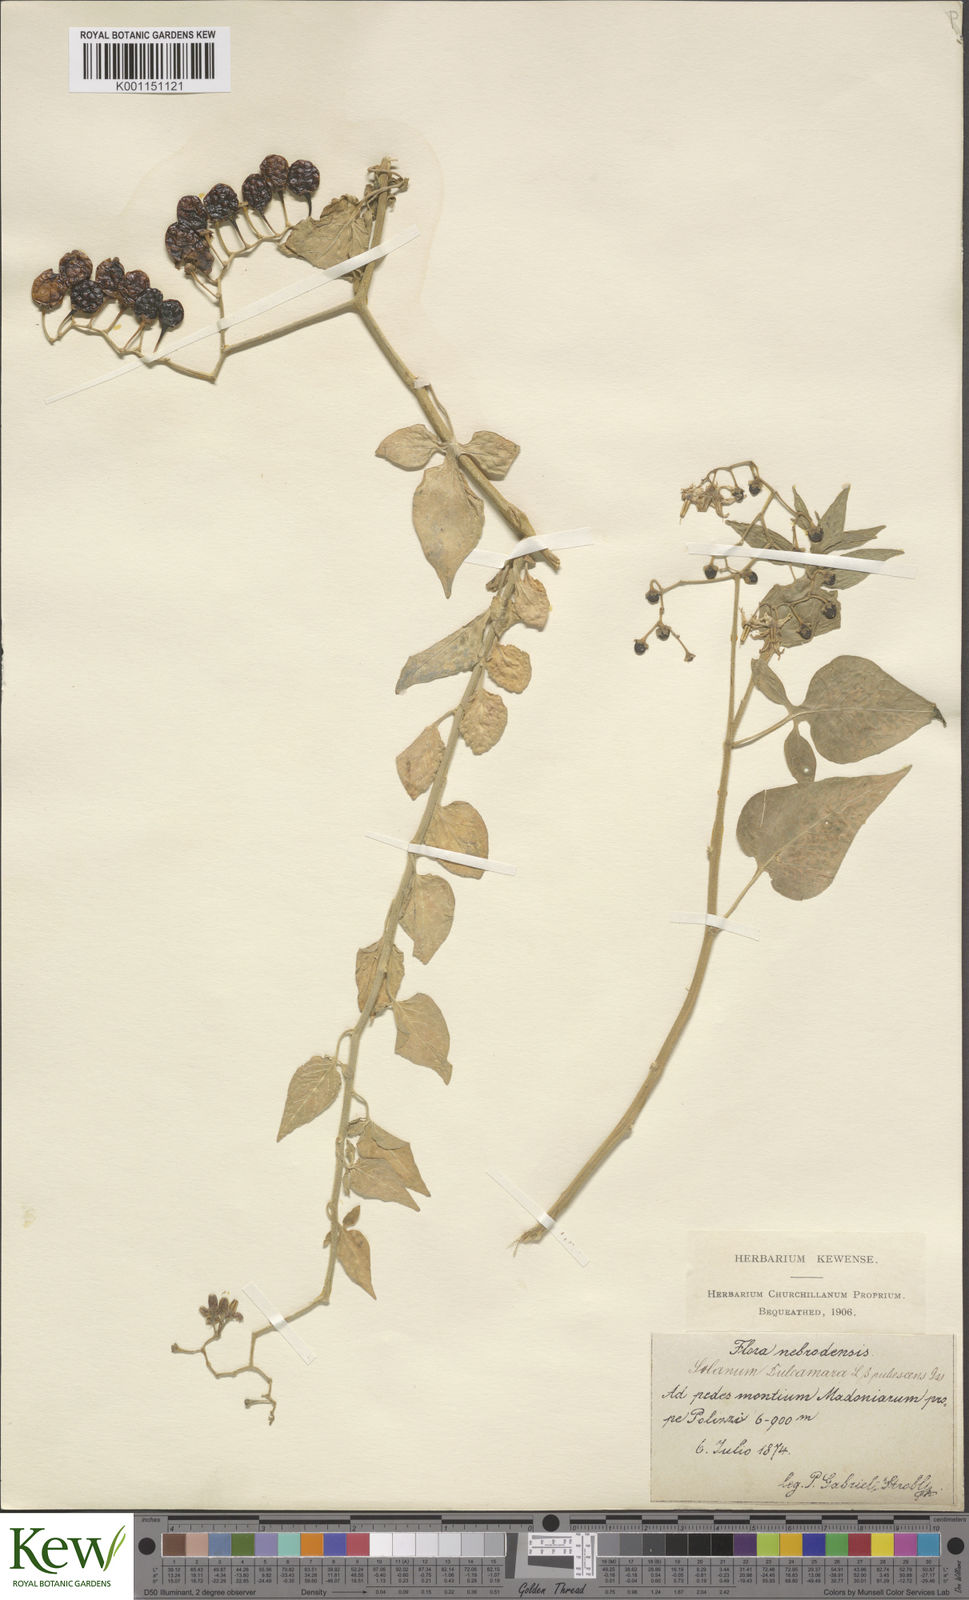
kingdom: Plantae
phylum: Tracheophyta
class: Magnoliopsida
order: Solanales
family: Solanaceae
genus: Solanum
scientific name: Solanum dulcamara
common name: Climbing nightshade
